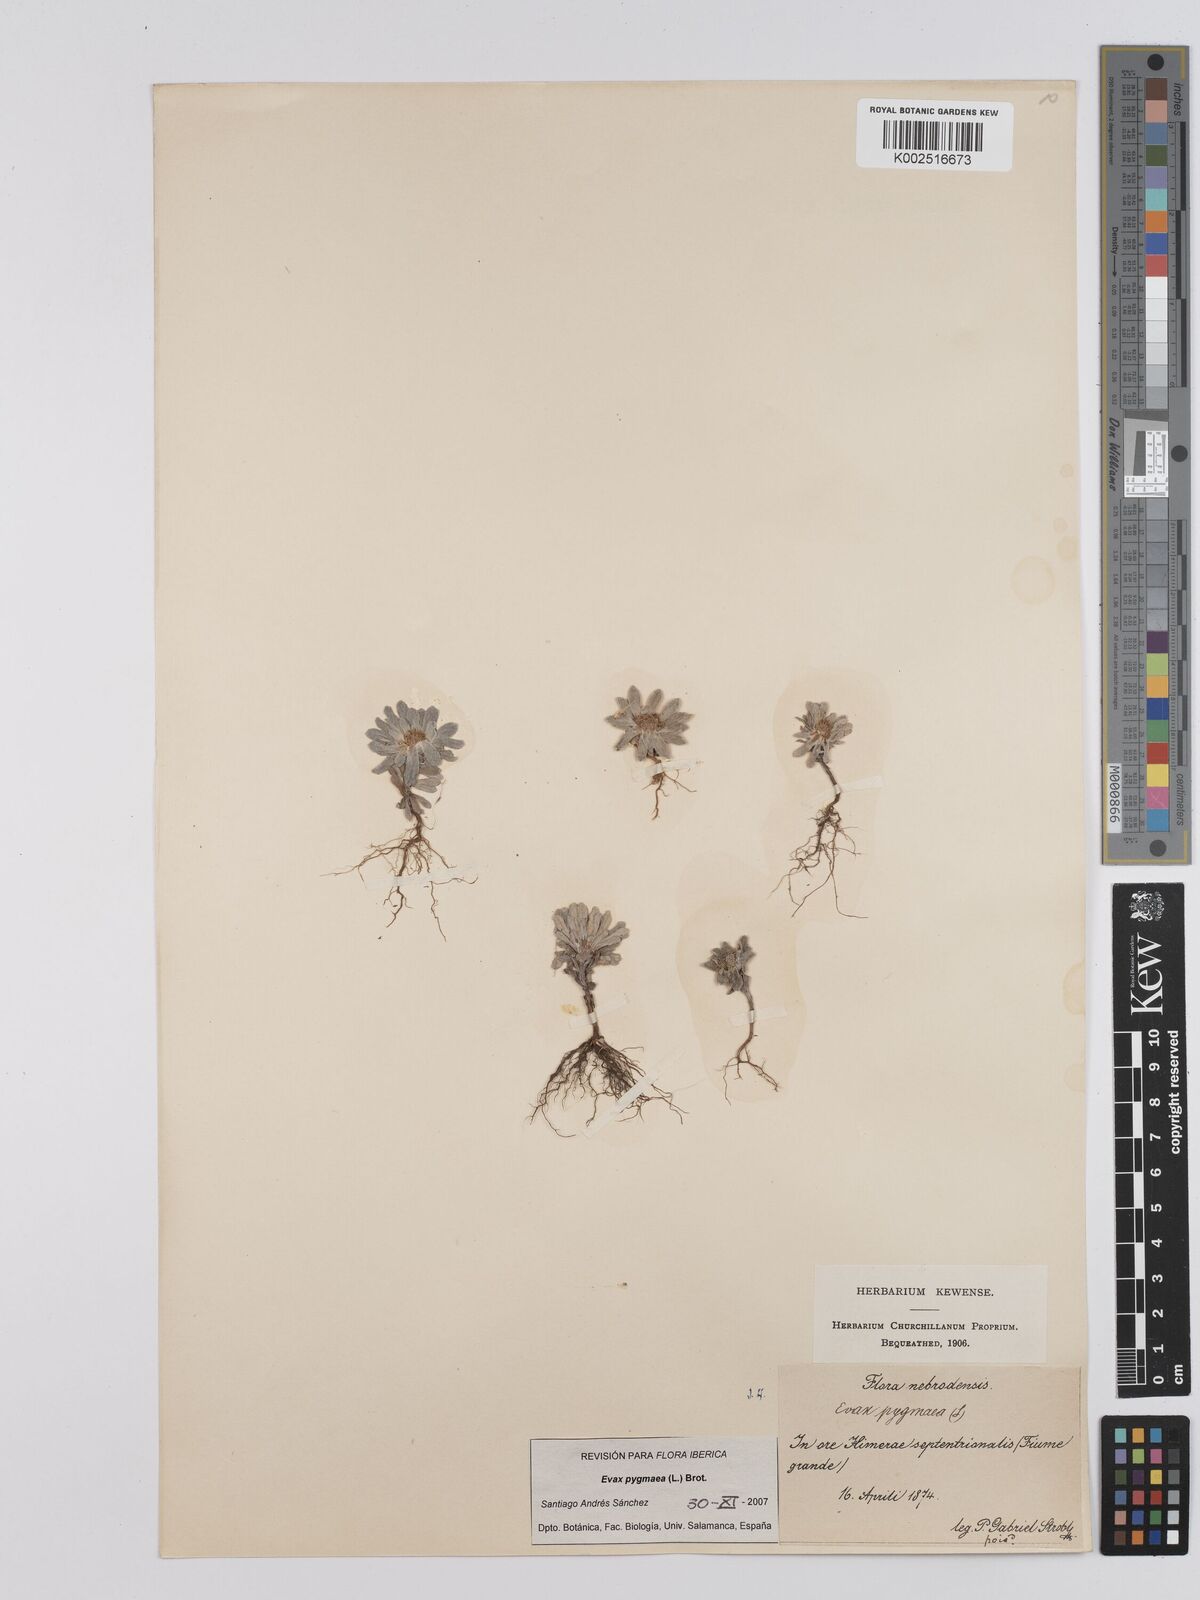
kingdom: Plantae
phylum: Tracheophyta
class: Magnoliopsida
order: Asterales
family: Asteraceae
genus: Filago
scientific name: Filago
